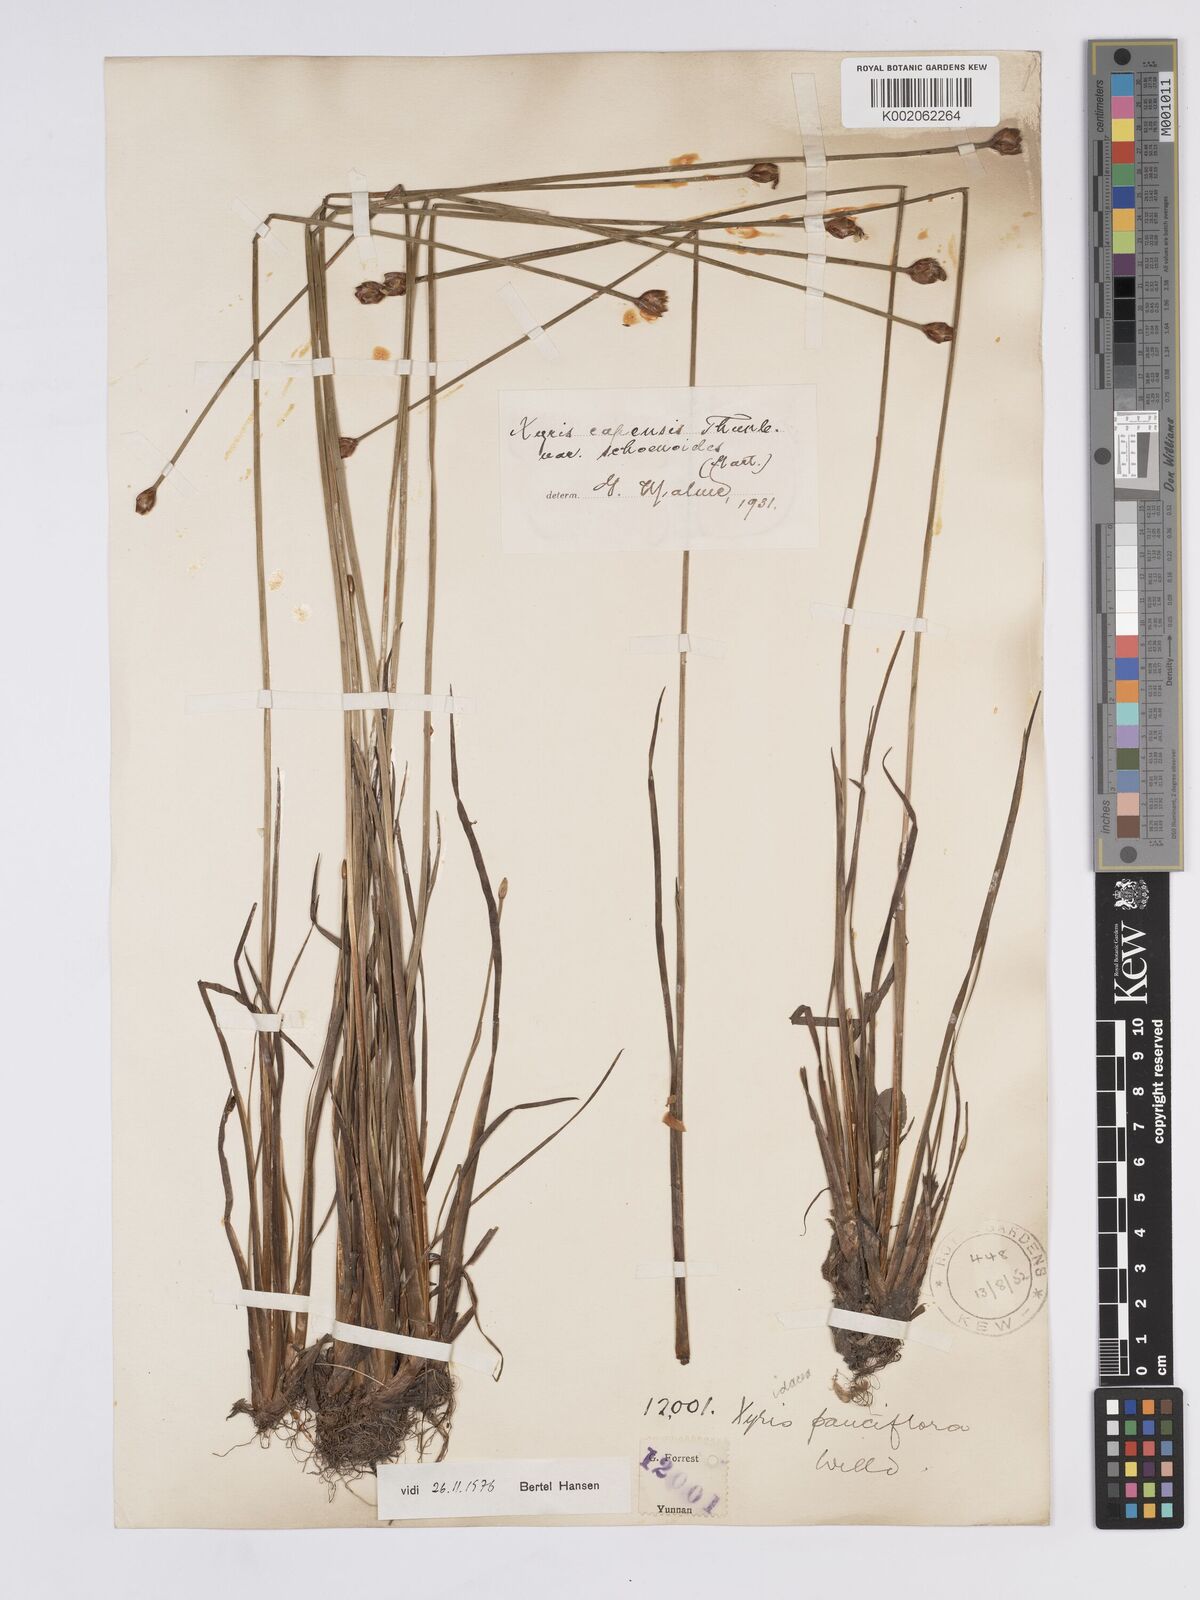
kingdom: Plantae
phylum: Tracheophyta
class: Liliopsida
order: Poales
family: Xyridaceae
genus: Xyris
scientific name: Xyris capensis
